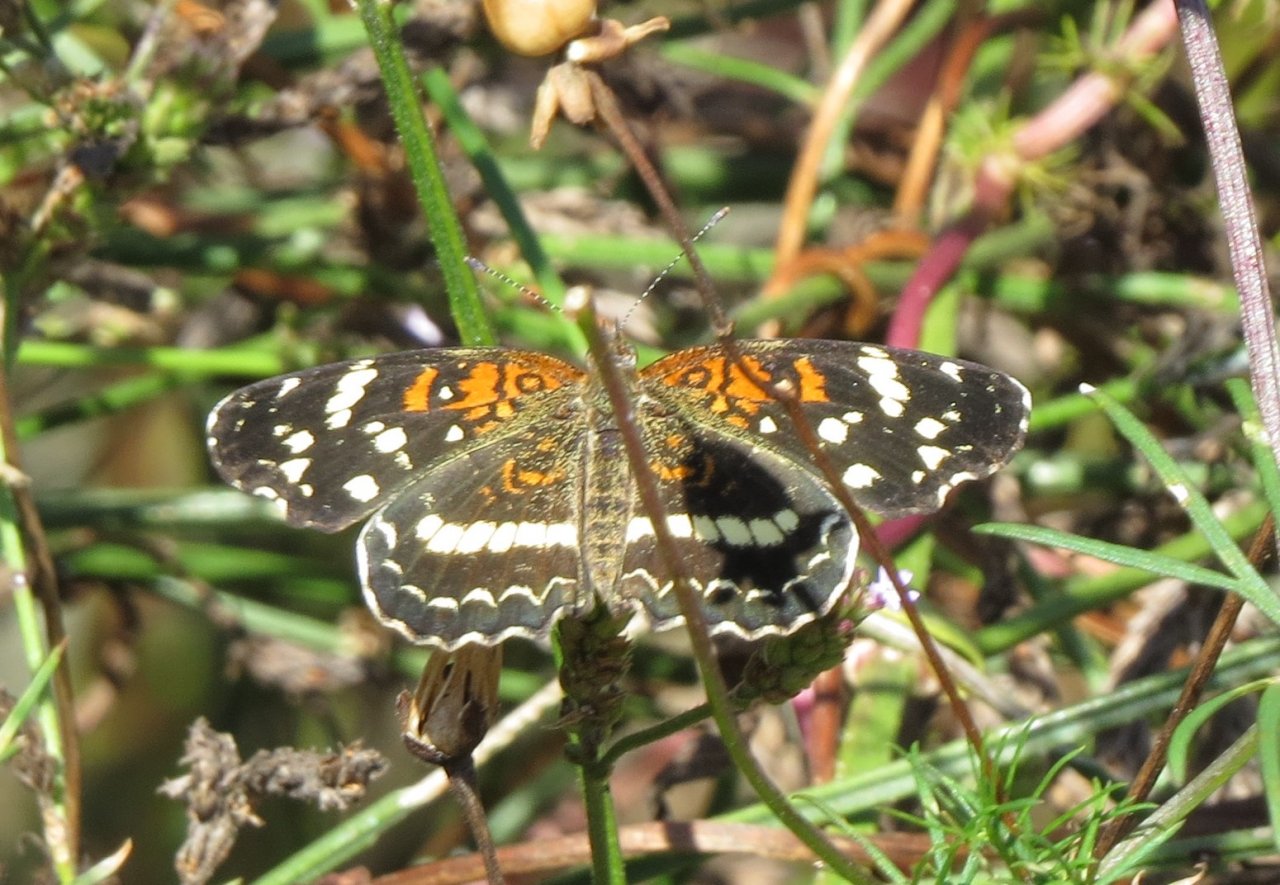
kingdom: Animalia
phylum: Arthropoda
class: Insecta
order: Lepidoptera
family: Nymphalidae
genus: Anthanassa
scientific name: Anthanassa texana
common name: Texan Crescent
